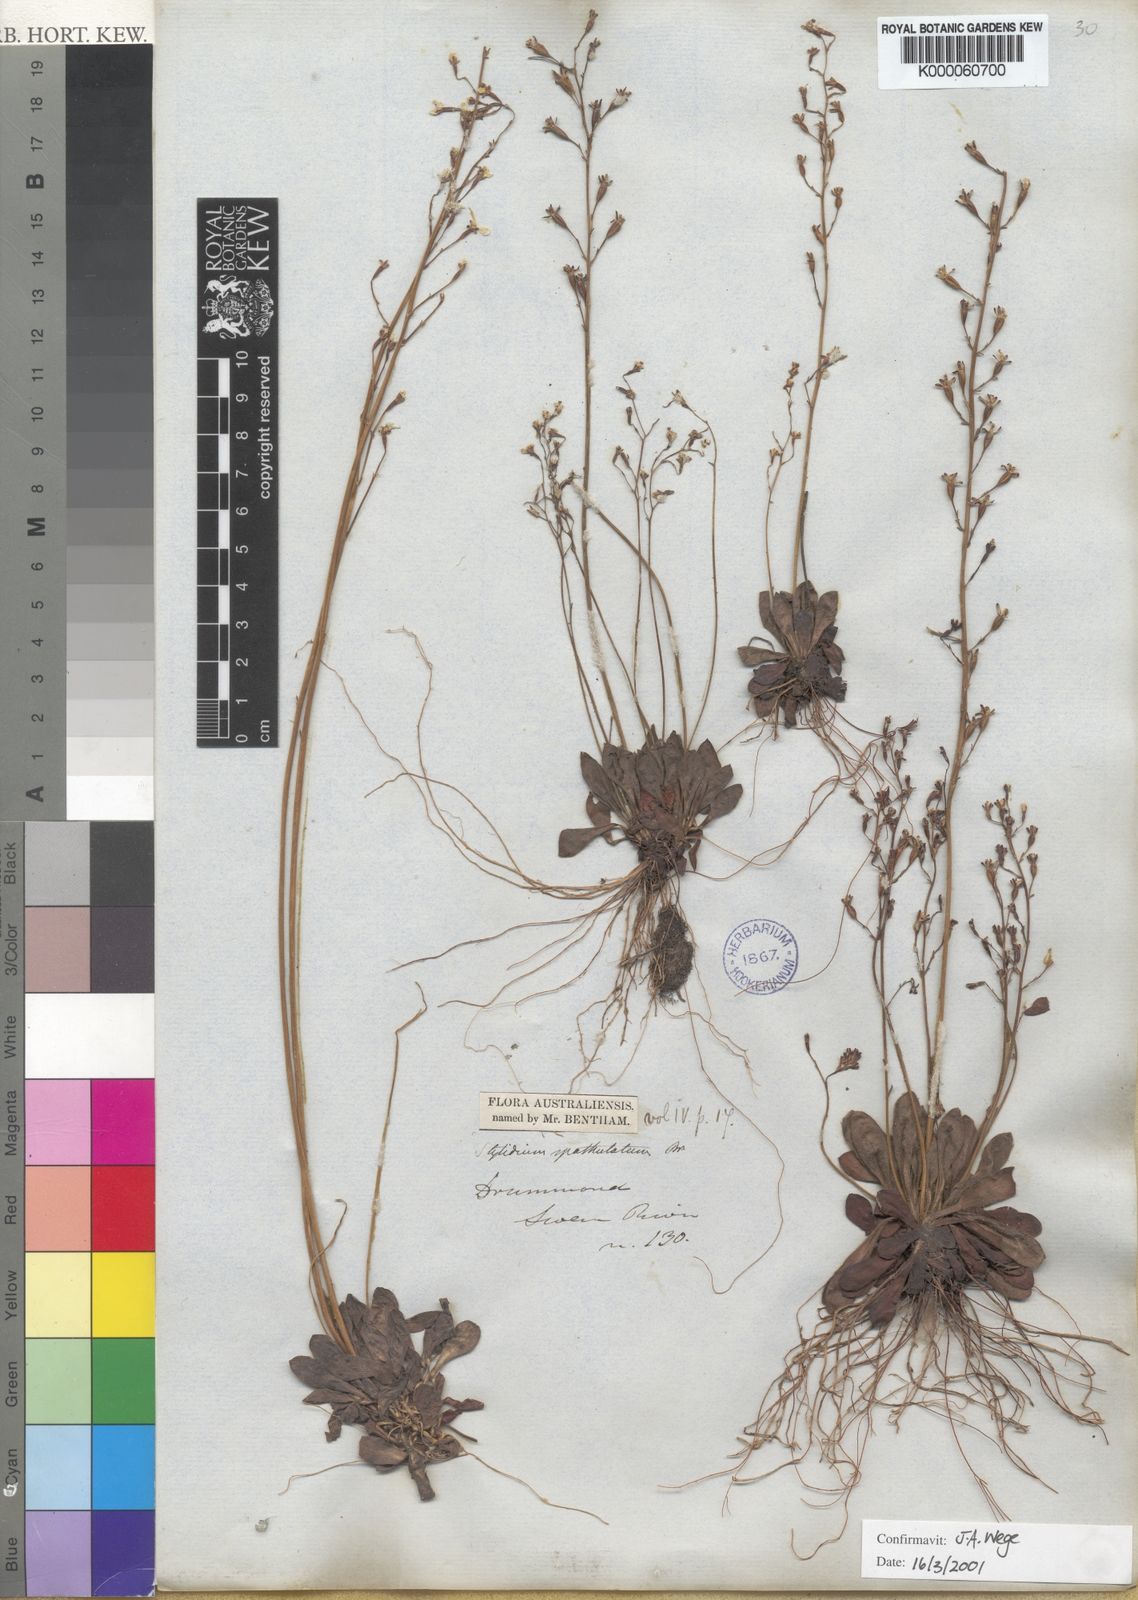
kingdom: Plantae
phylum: Tracheophyta
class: Magnoliopsida
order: Asterales
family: Stylidiaceae
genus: Stylidium
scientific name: Stylidium spathulatum
